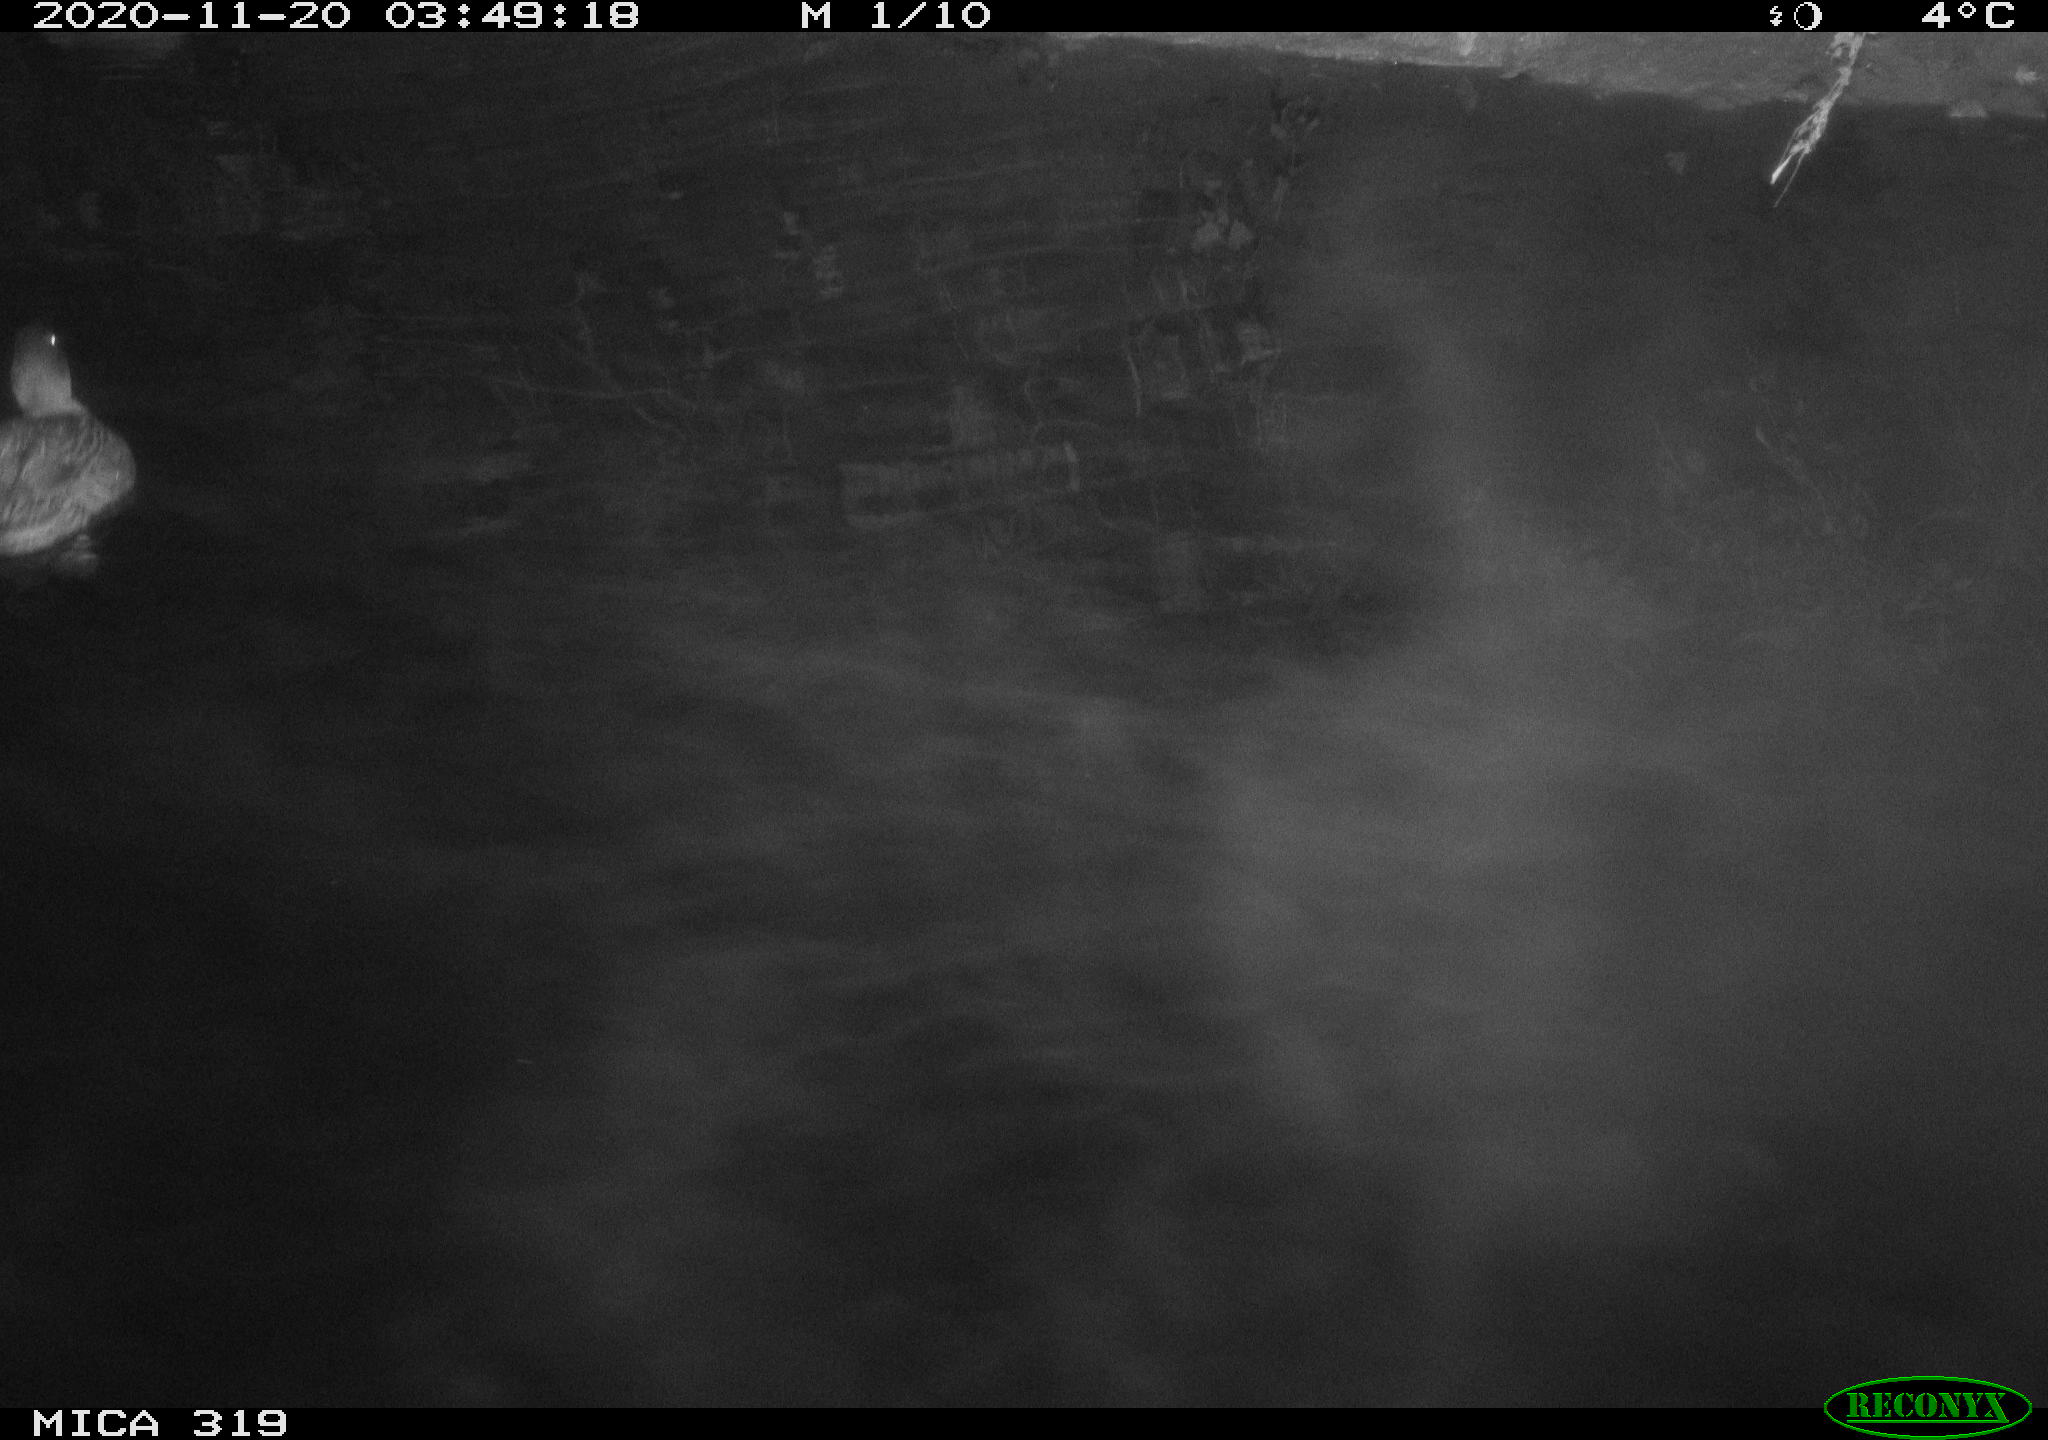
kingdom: Animalia
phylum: Chordata
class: Aves
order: Anseriformes
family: Anatidae
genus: Anas
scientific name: Anas platyrhynchos
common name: Mallard
